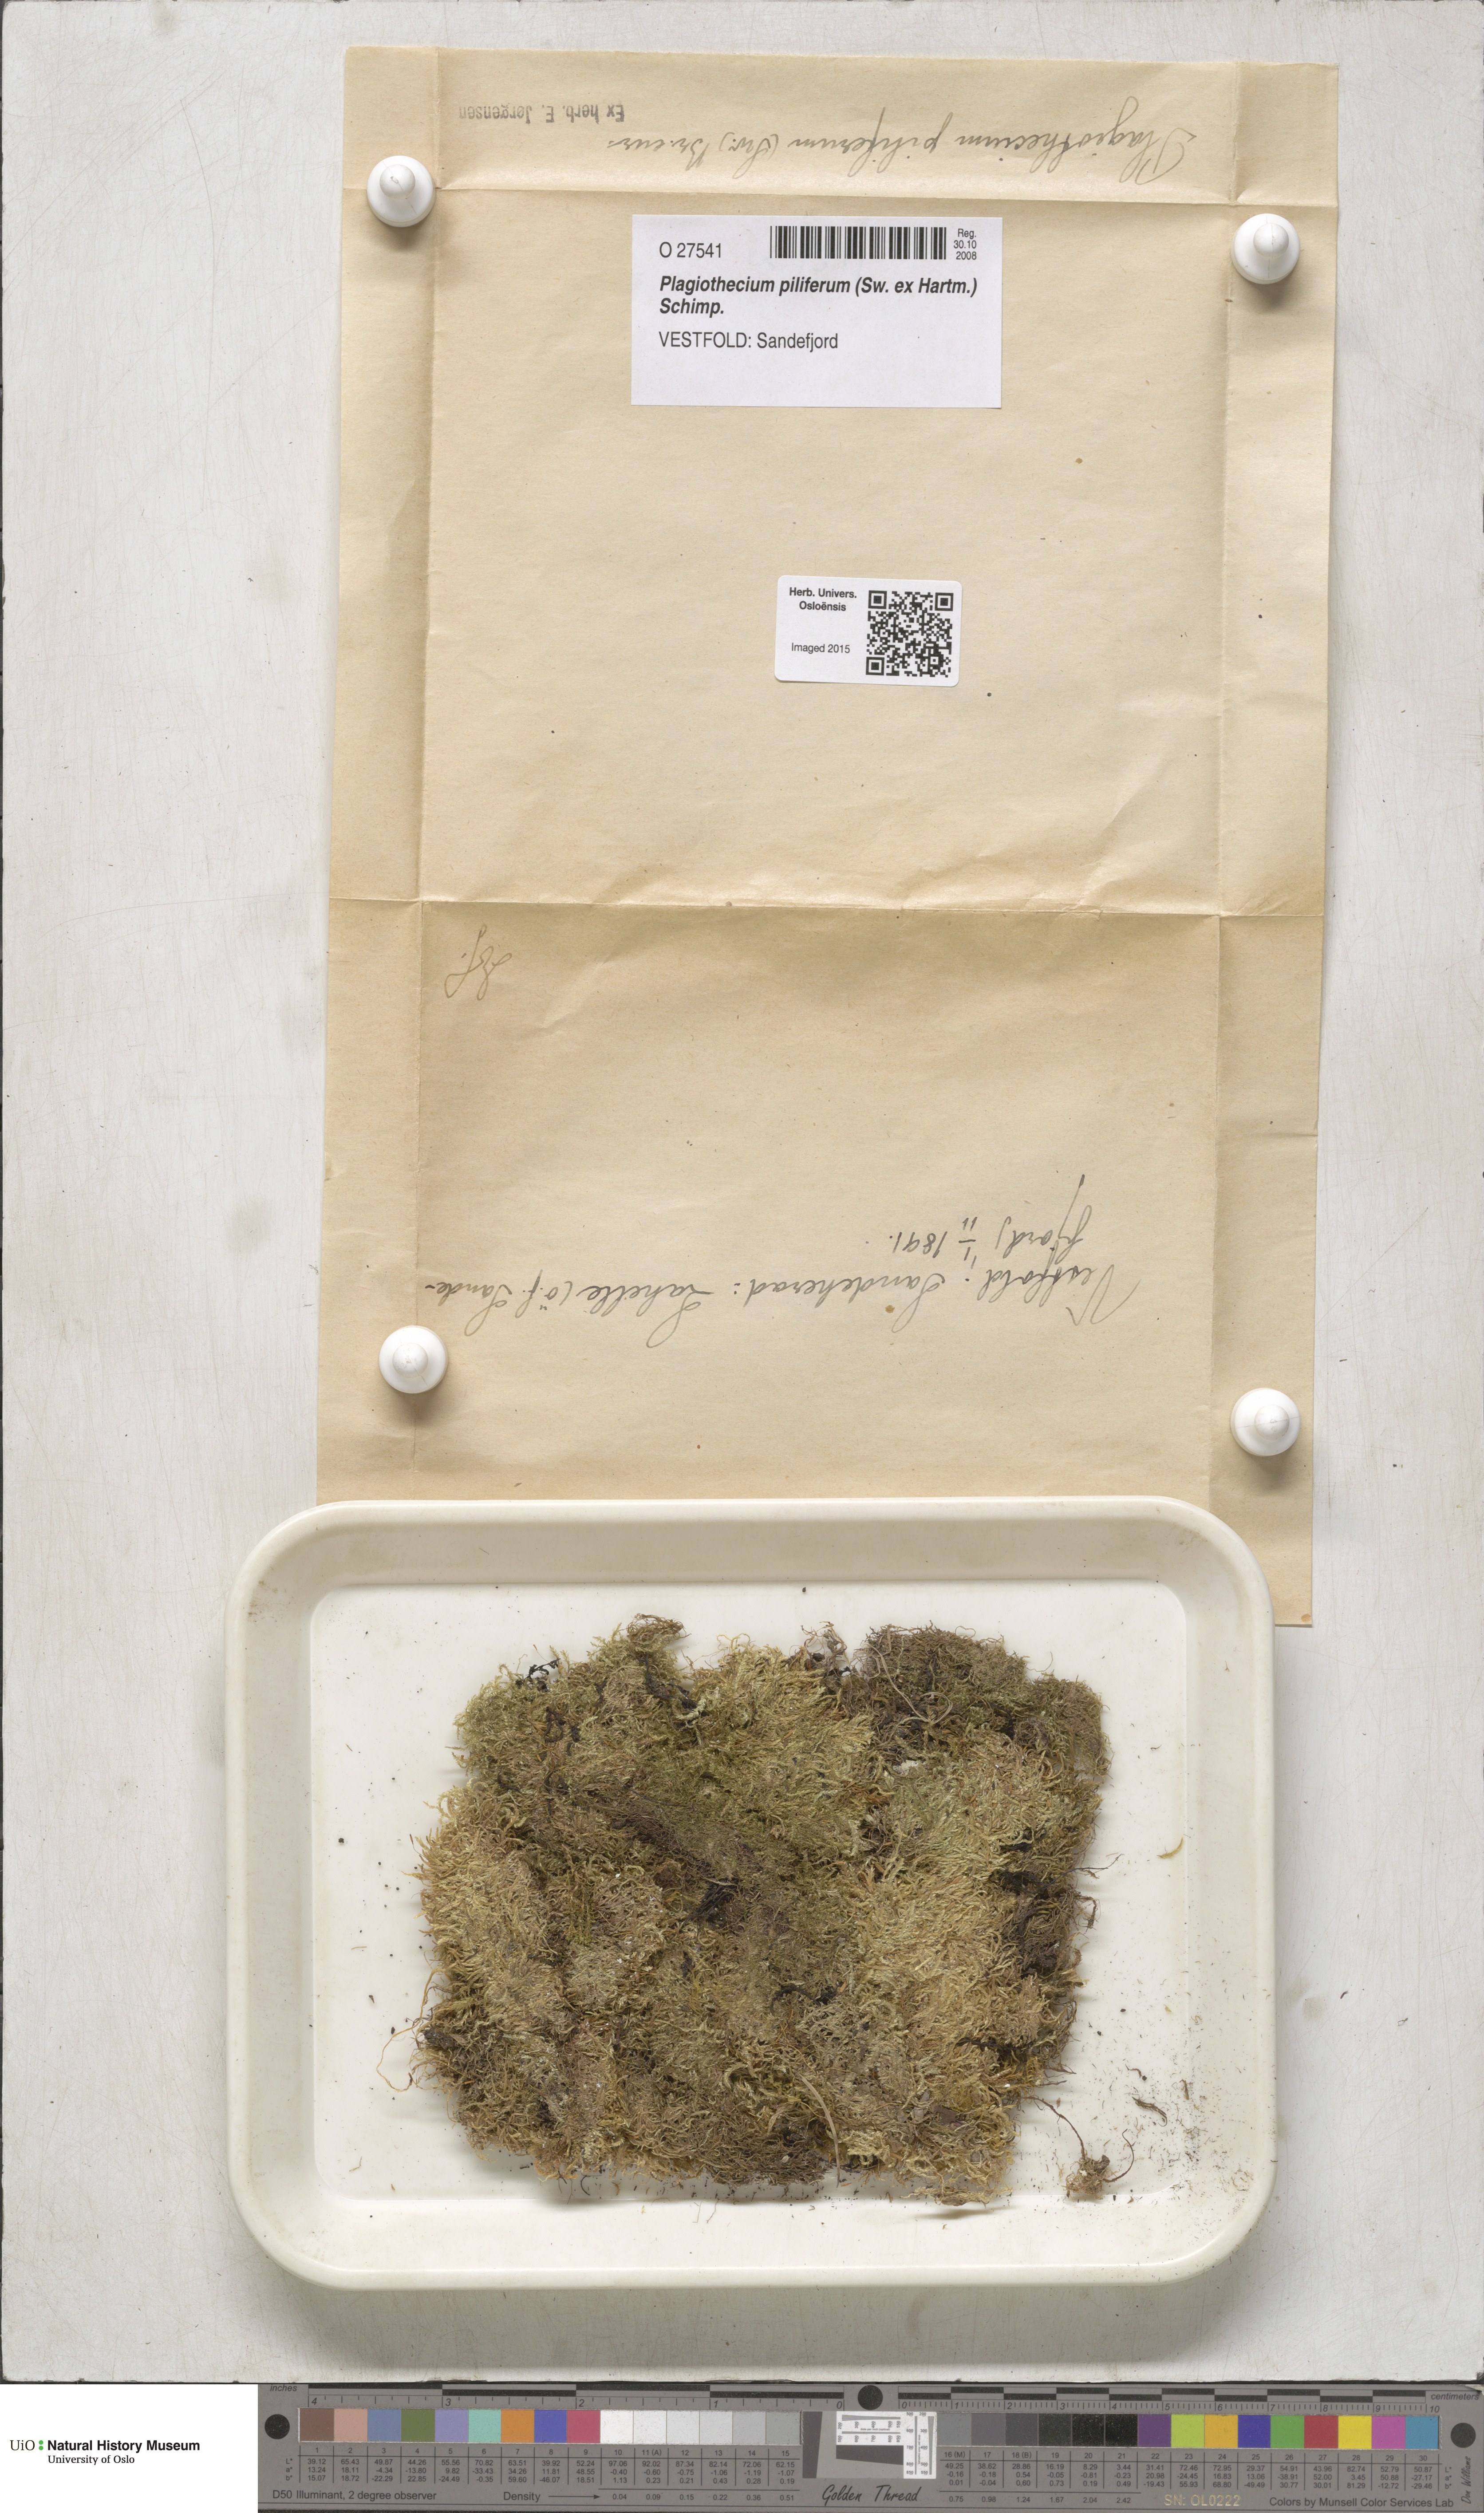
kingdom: Plantae
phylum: Bryophyta
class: Bryopsida
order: Hypnales
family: Plagiotheciaceae
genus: Rectithecium
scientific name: Rectithecium piliferum
